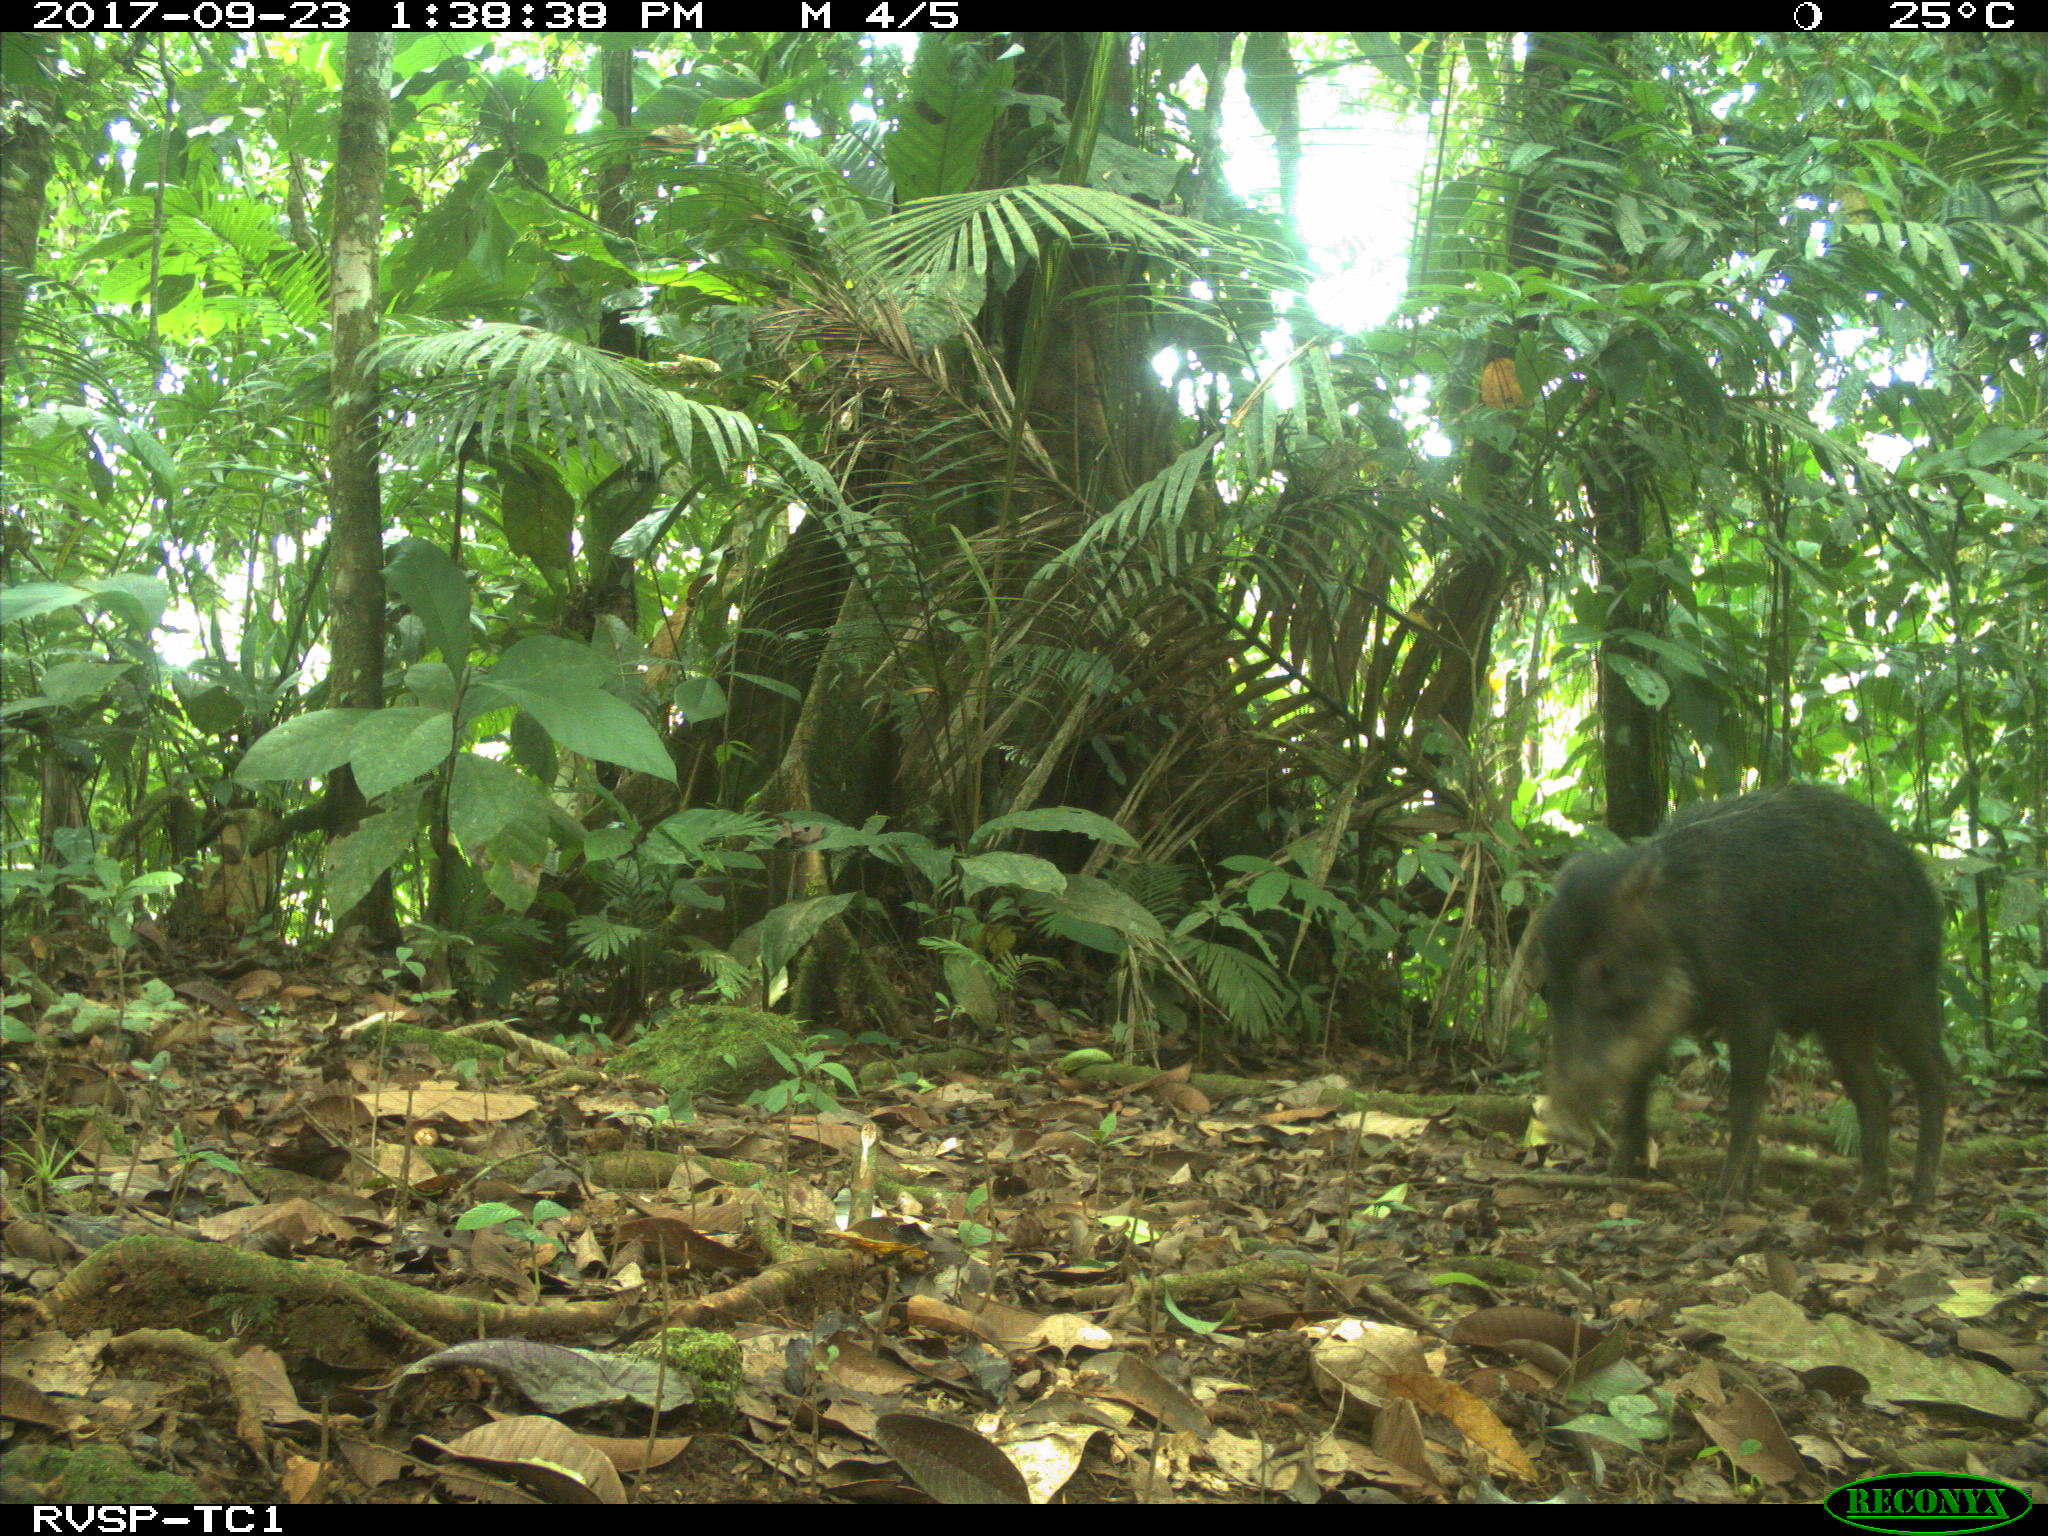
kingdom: Animalia
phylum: Chordata
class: Mammalia
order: Artiodactyla
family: Tayassuidae
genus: Tayassu
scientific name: Tayassu pecari
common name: White-lipped peccary
